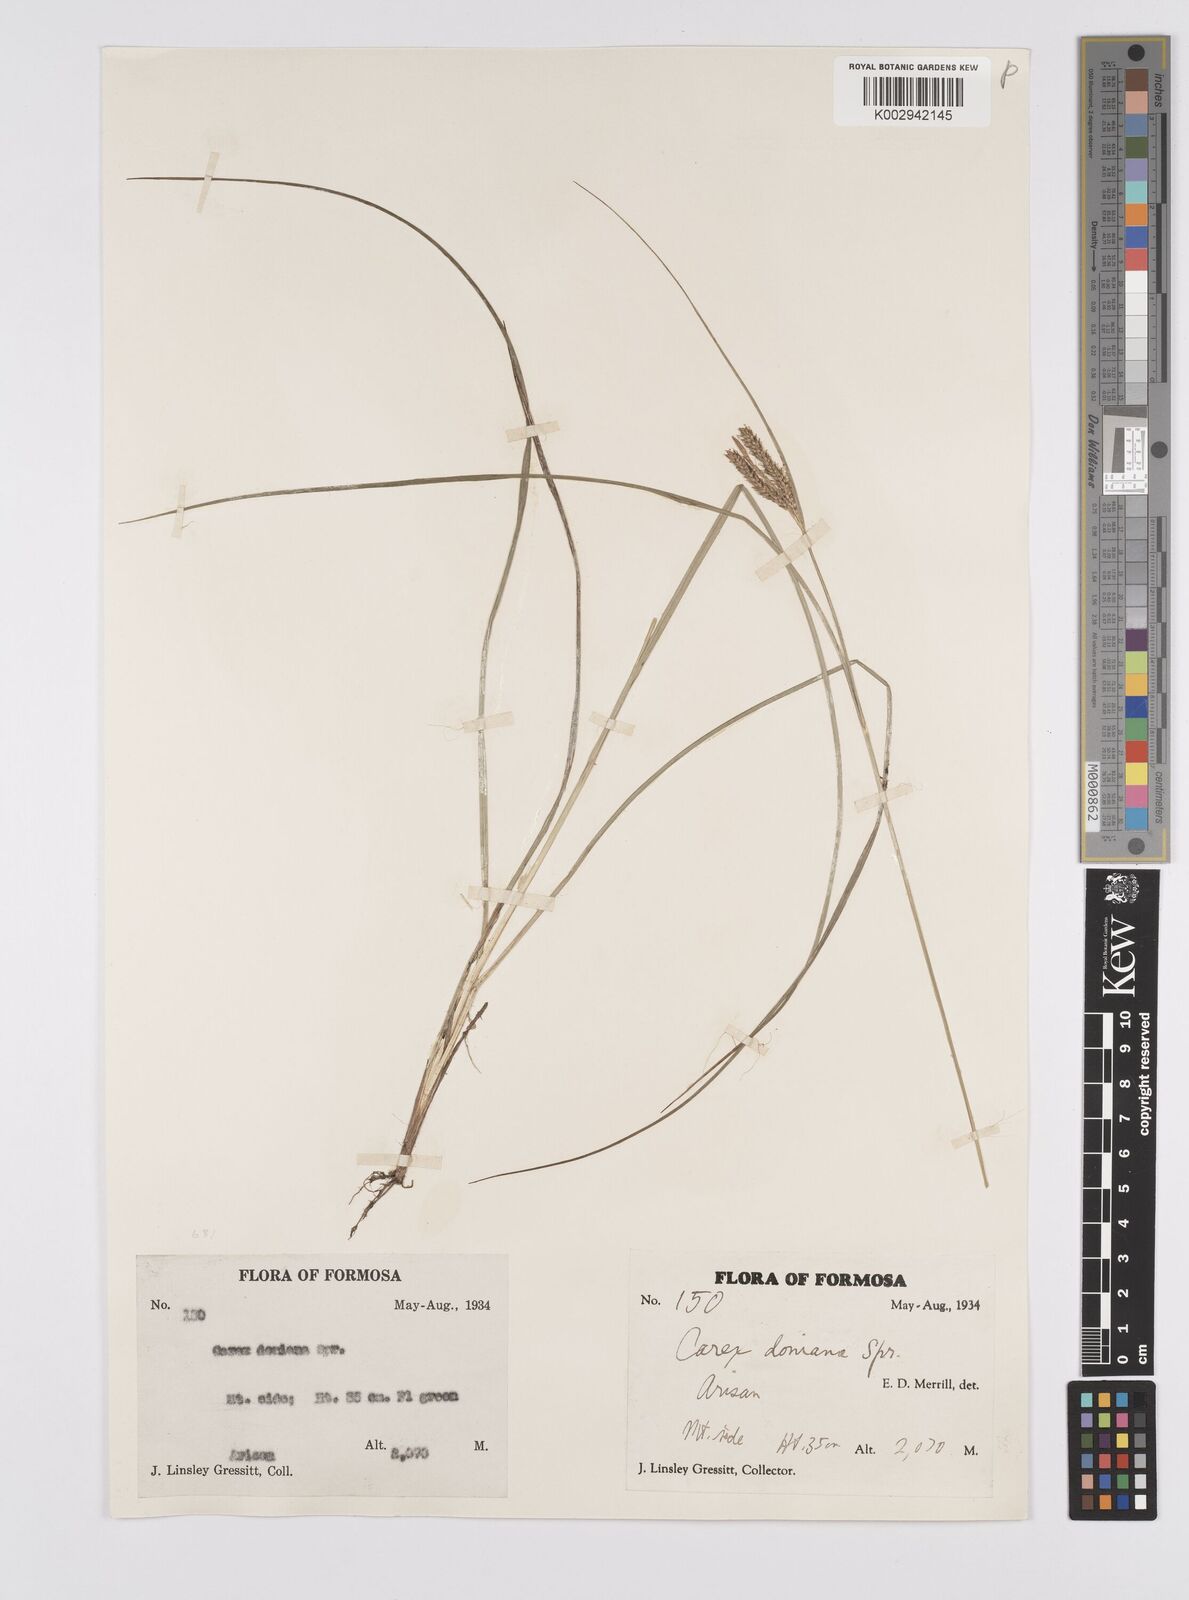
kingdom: Plantae
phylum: Tracheophyta
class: Liliopsida
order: Poales
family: Cyperaceae
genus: Carex
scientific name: Carex japonica
